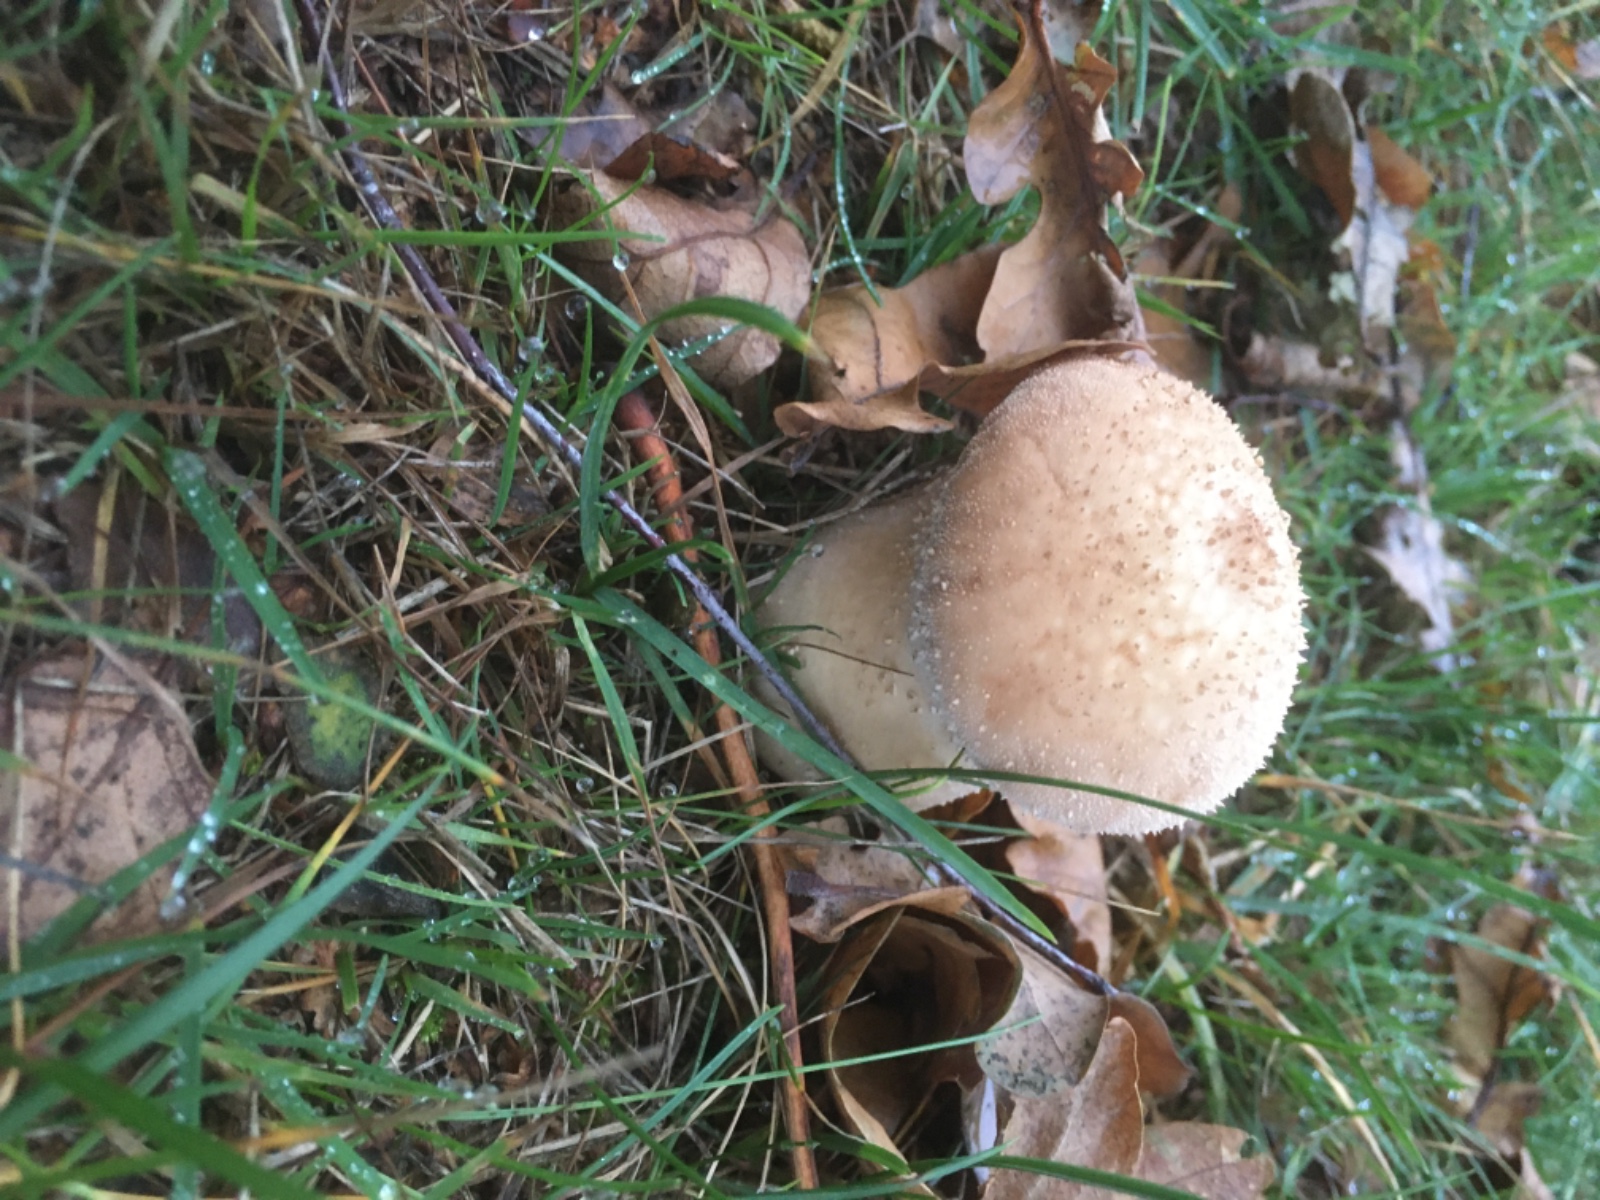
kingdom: Fungi
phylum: Basidiomycota
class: Agaricomycetes
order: Agaricales
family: Lycoperdaceae
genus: Lycoperdon
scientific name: Lycoperdon perlatum
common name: krystal-støvbold
